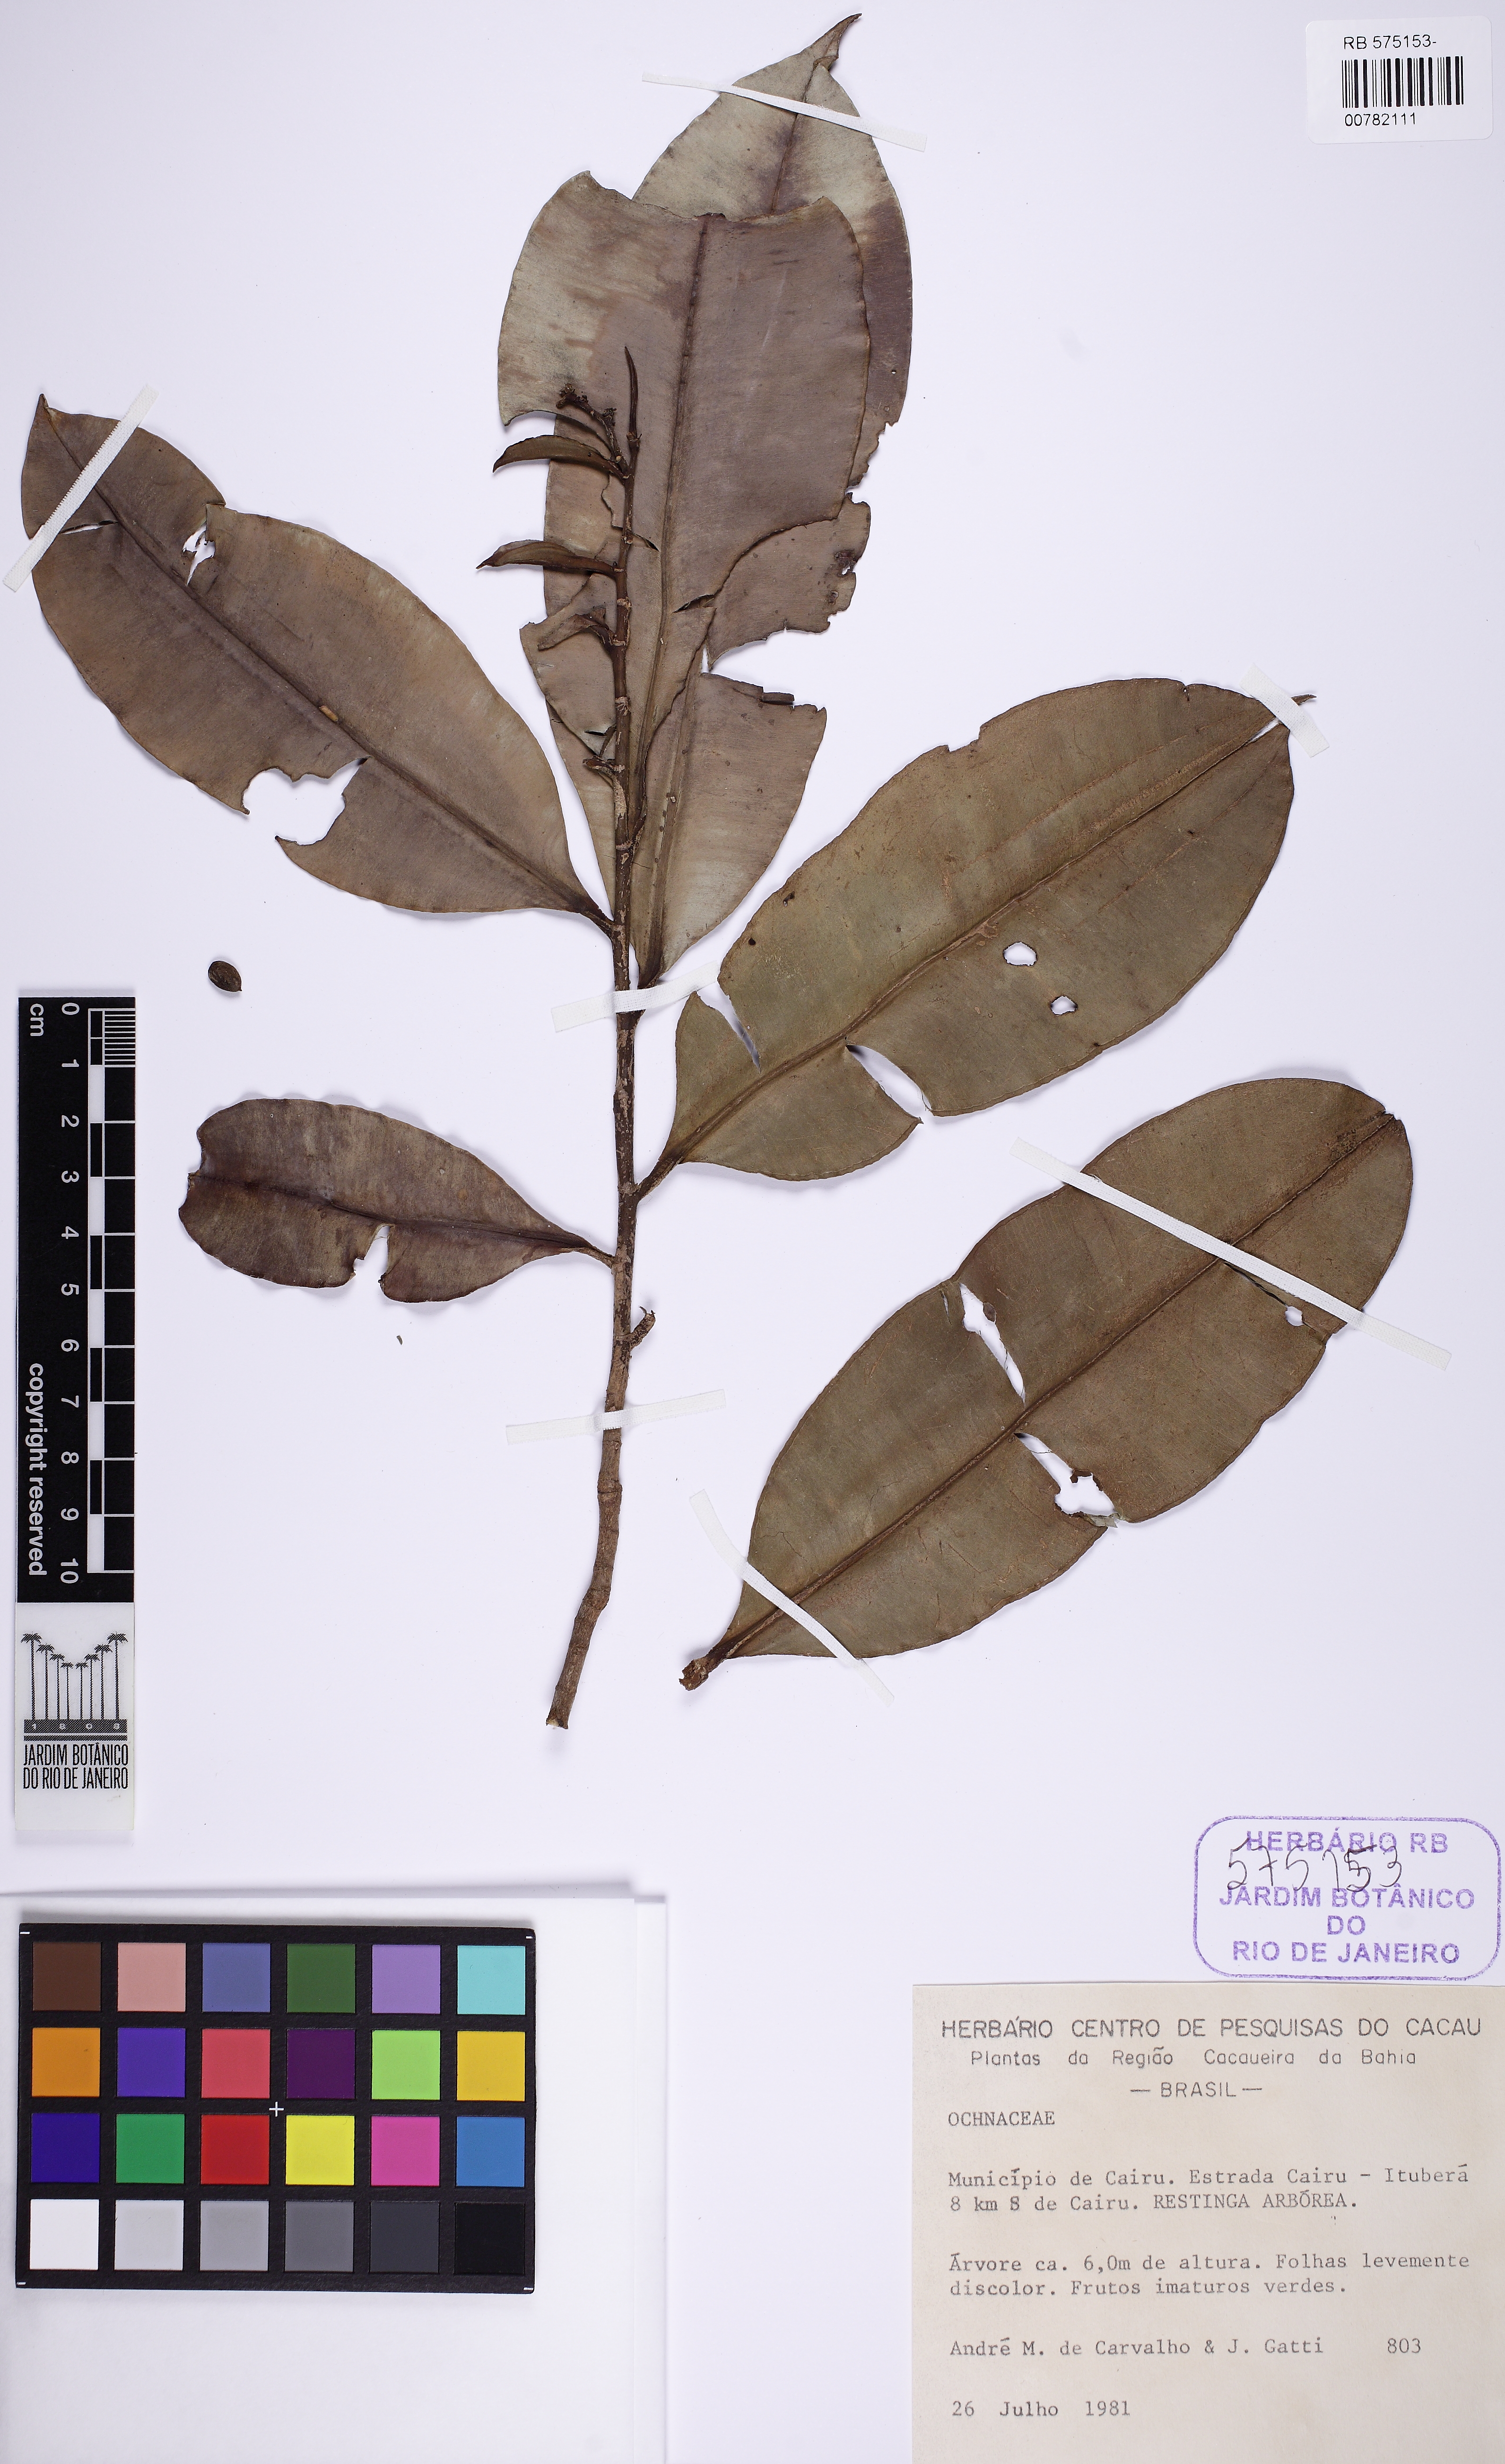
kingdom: Plantae
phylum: Tracheophyta
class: Magnoliopsida
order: Malpighiales
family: Ochnaceae
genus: Elvasia
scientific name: Elvasia
